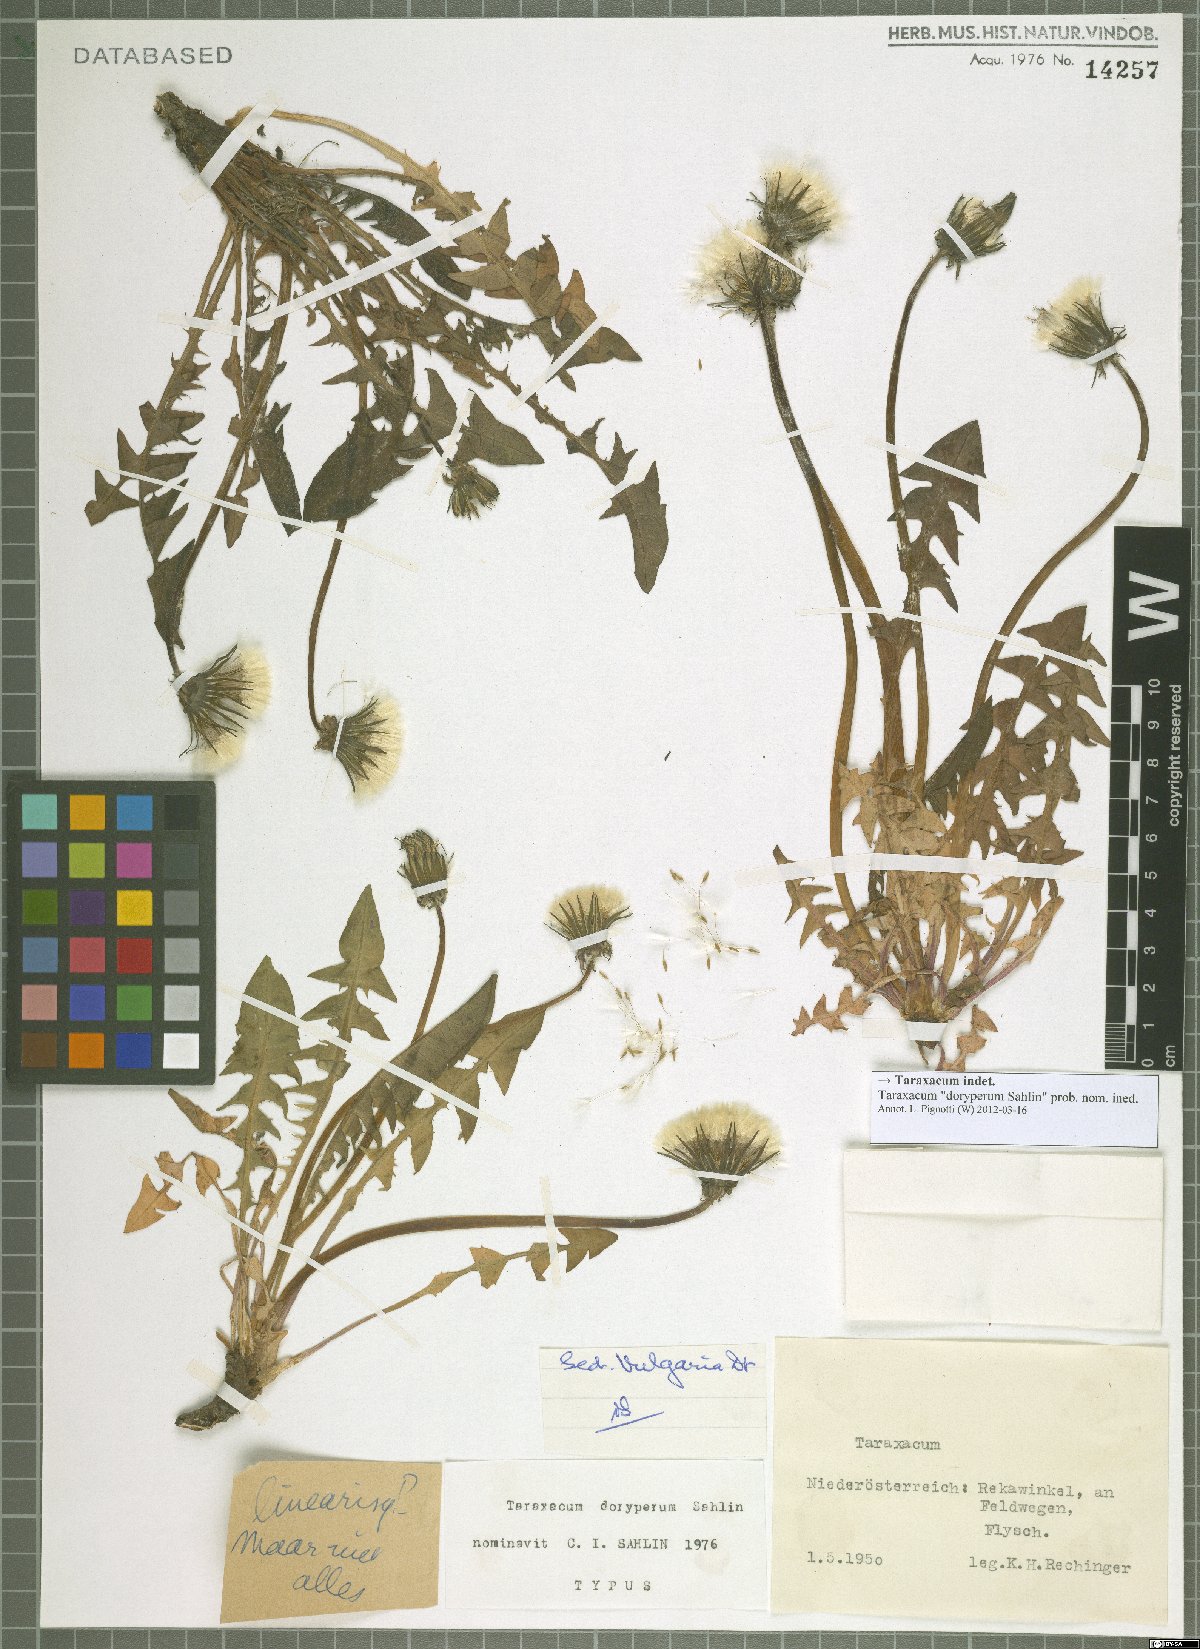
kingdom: Plantae
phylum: Tracheophyta
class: Magnoliopsida
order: Asterales
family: Asteraceae
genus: Taraxacum
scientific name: Taraxacum
